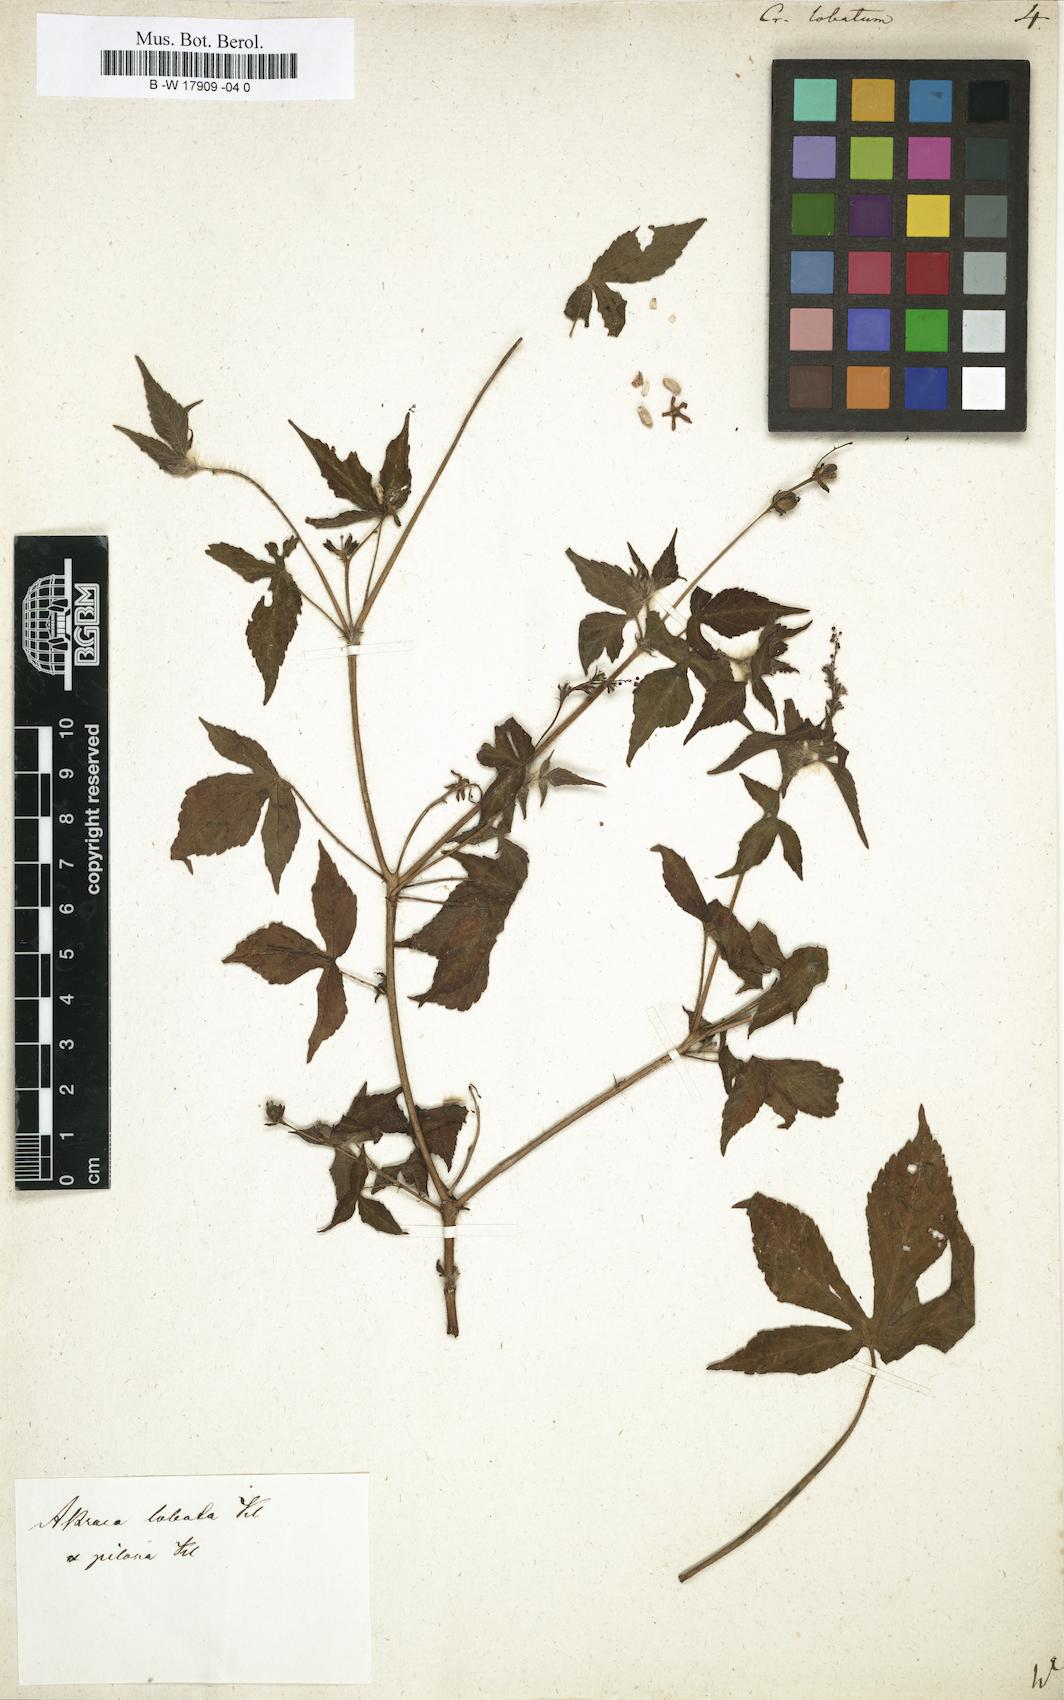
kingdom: Plantae
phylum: Tracheophyta
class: Magnoliopsida
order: Malpighiales
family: Euphorbiaceae
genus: Astraea
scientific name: Astraea lobata
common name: Lobed croton
